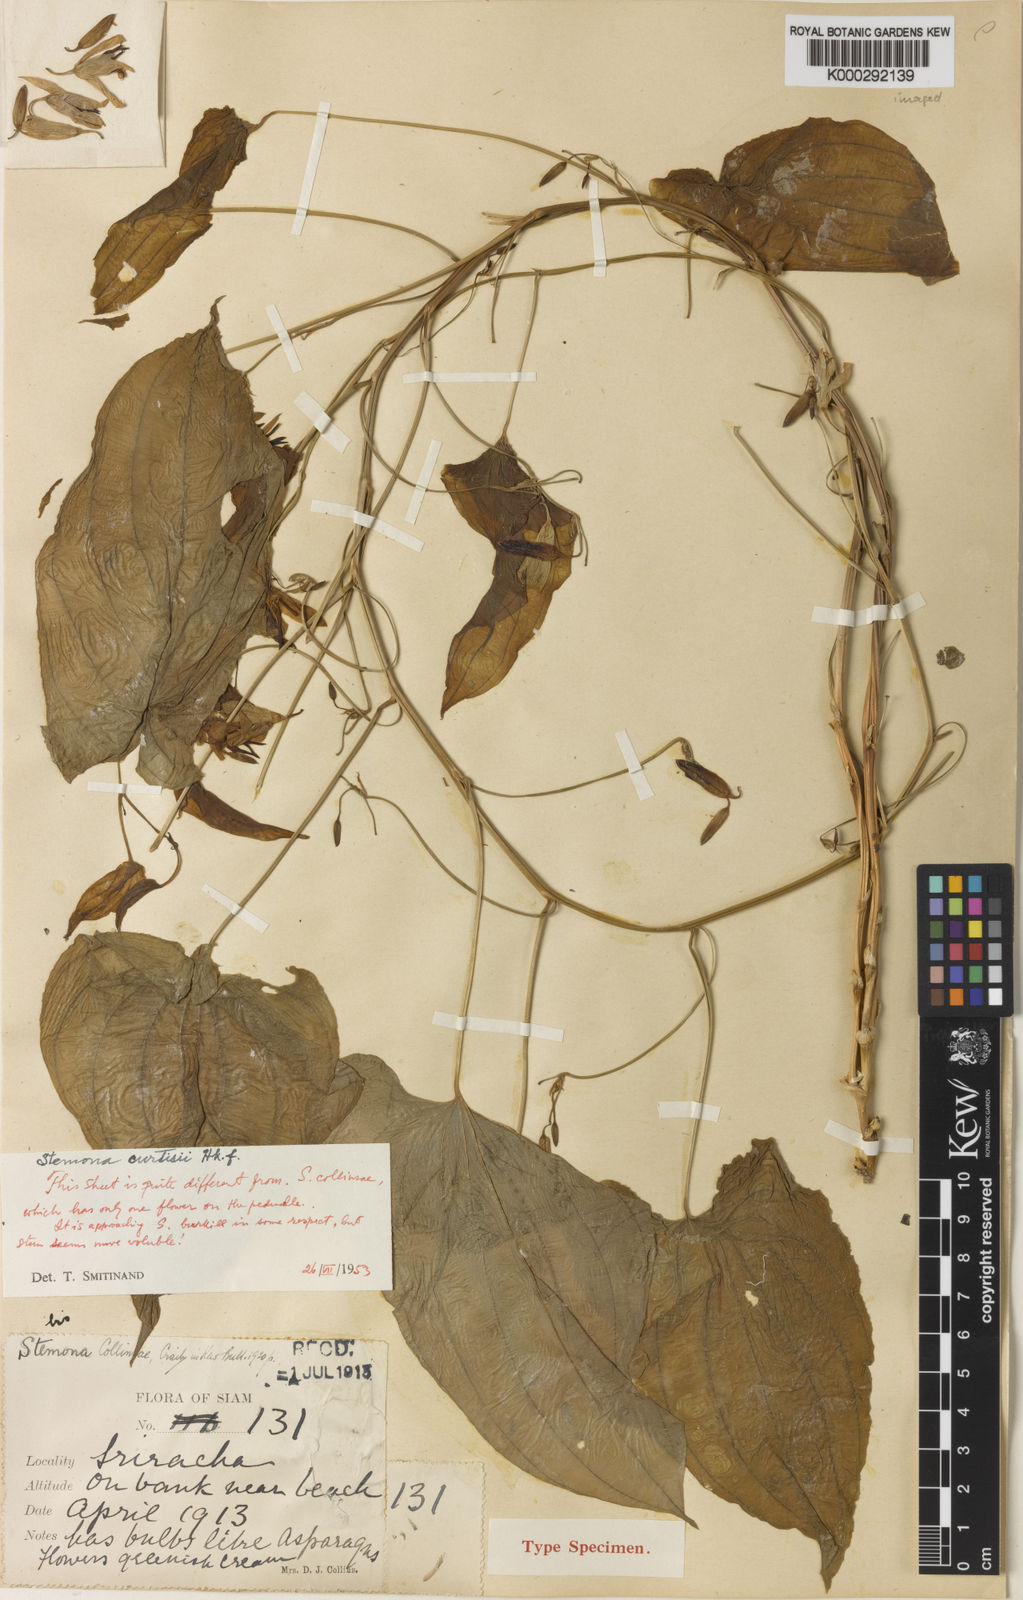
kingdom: Plantae
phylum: Tracheophyta
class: Liliopsida
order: Pandanales
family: Stemonaceae
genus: Stemona
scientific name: Stemona collinsiae
